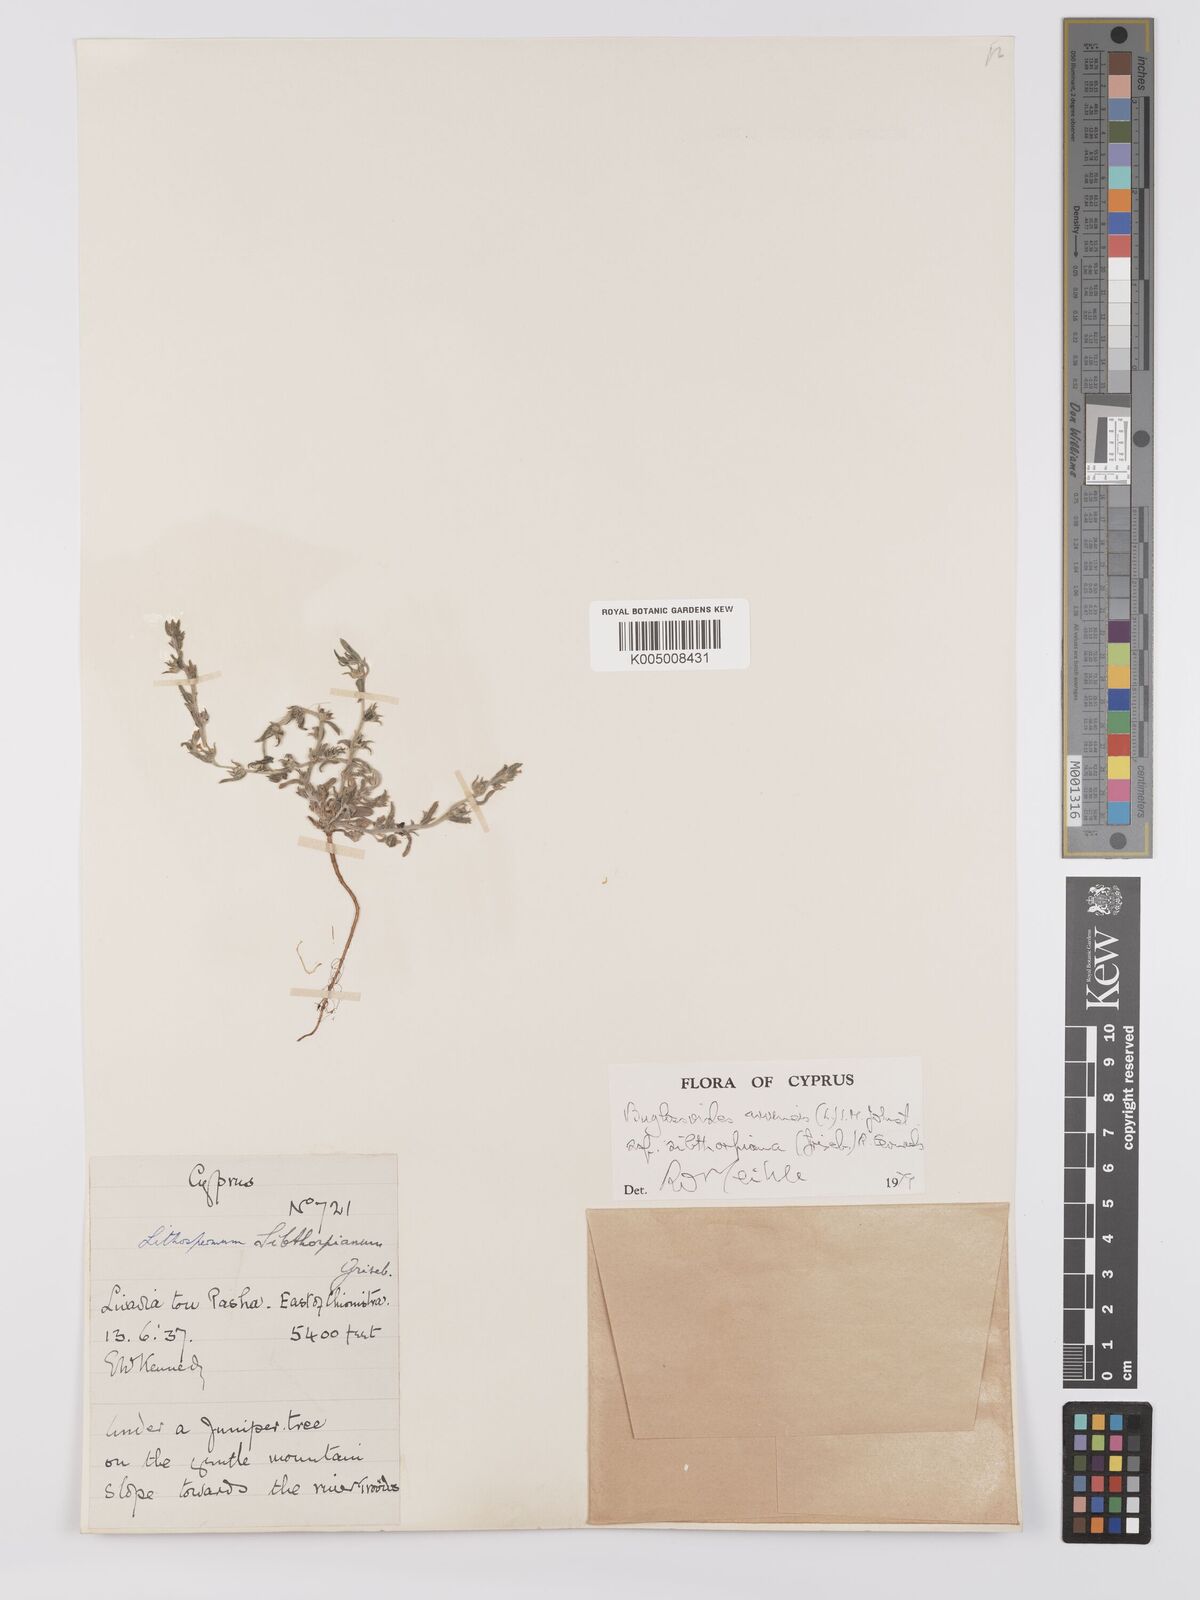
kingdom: Plantae
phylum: Tracheophyta
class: Magnoliopsida
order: Boraginales
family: Boraginaceae
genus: Buglossoides
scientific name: Buglossoides
